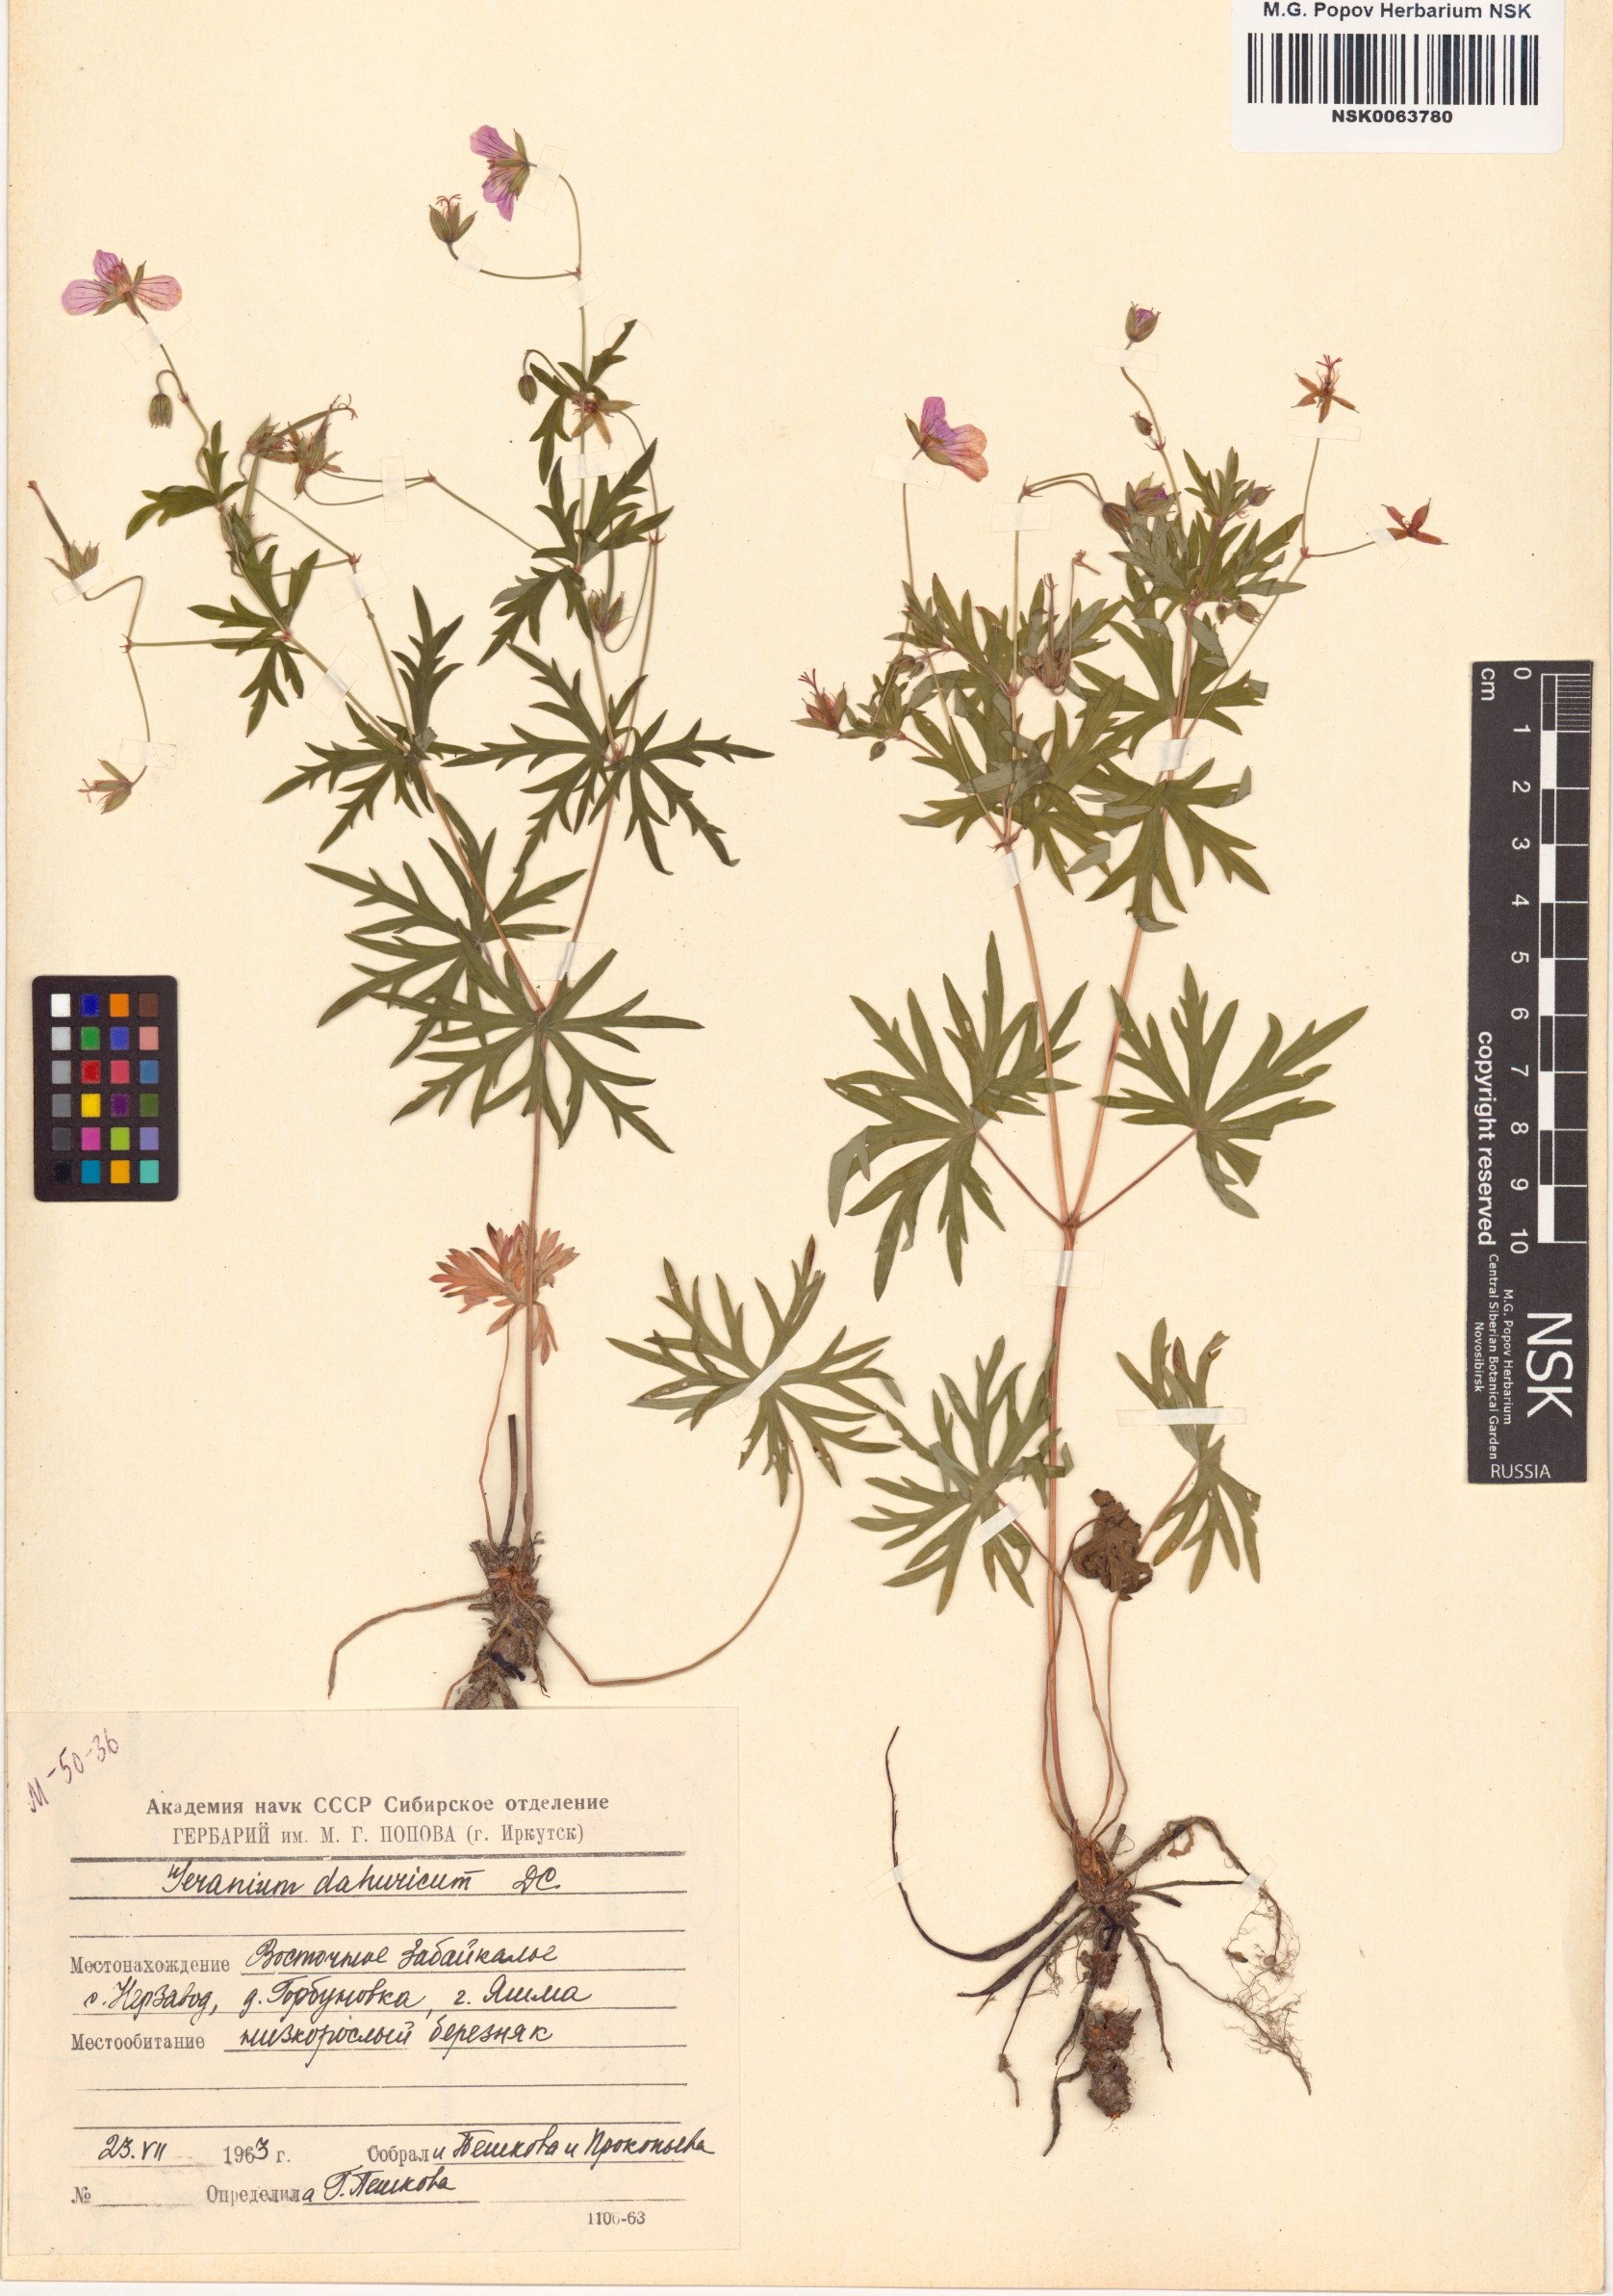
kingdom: Plantae
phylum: Tracheophyta
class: Magnoliopsida
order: Geraniales
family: Geraniaceae
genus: Geranium
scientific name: Geranium dahuricum
